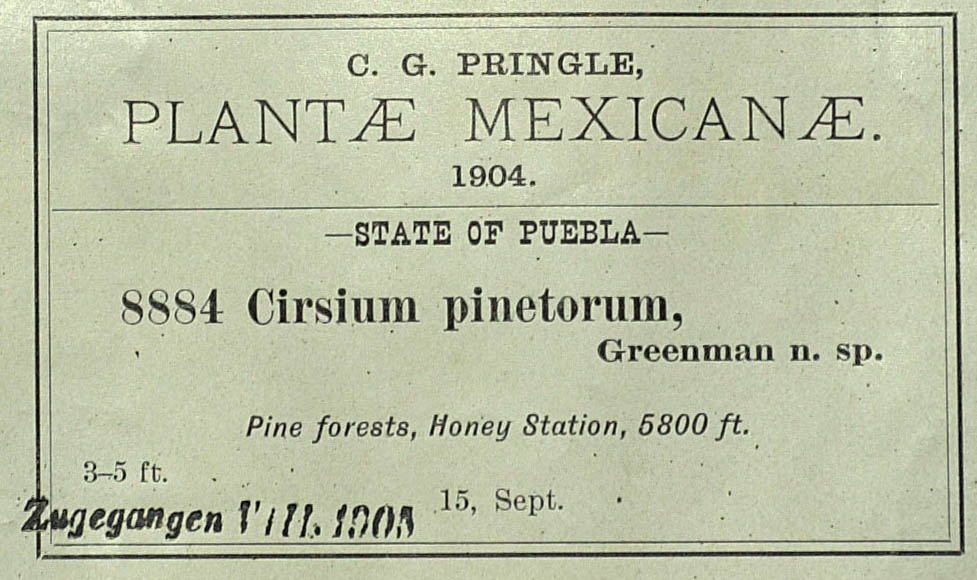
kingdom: Plantae
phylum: Tracheophyta
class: Magnoliopsida
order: Asterales
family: Asteraceae
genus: Cirsium
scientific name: Cirsium pinetorum
